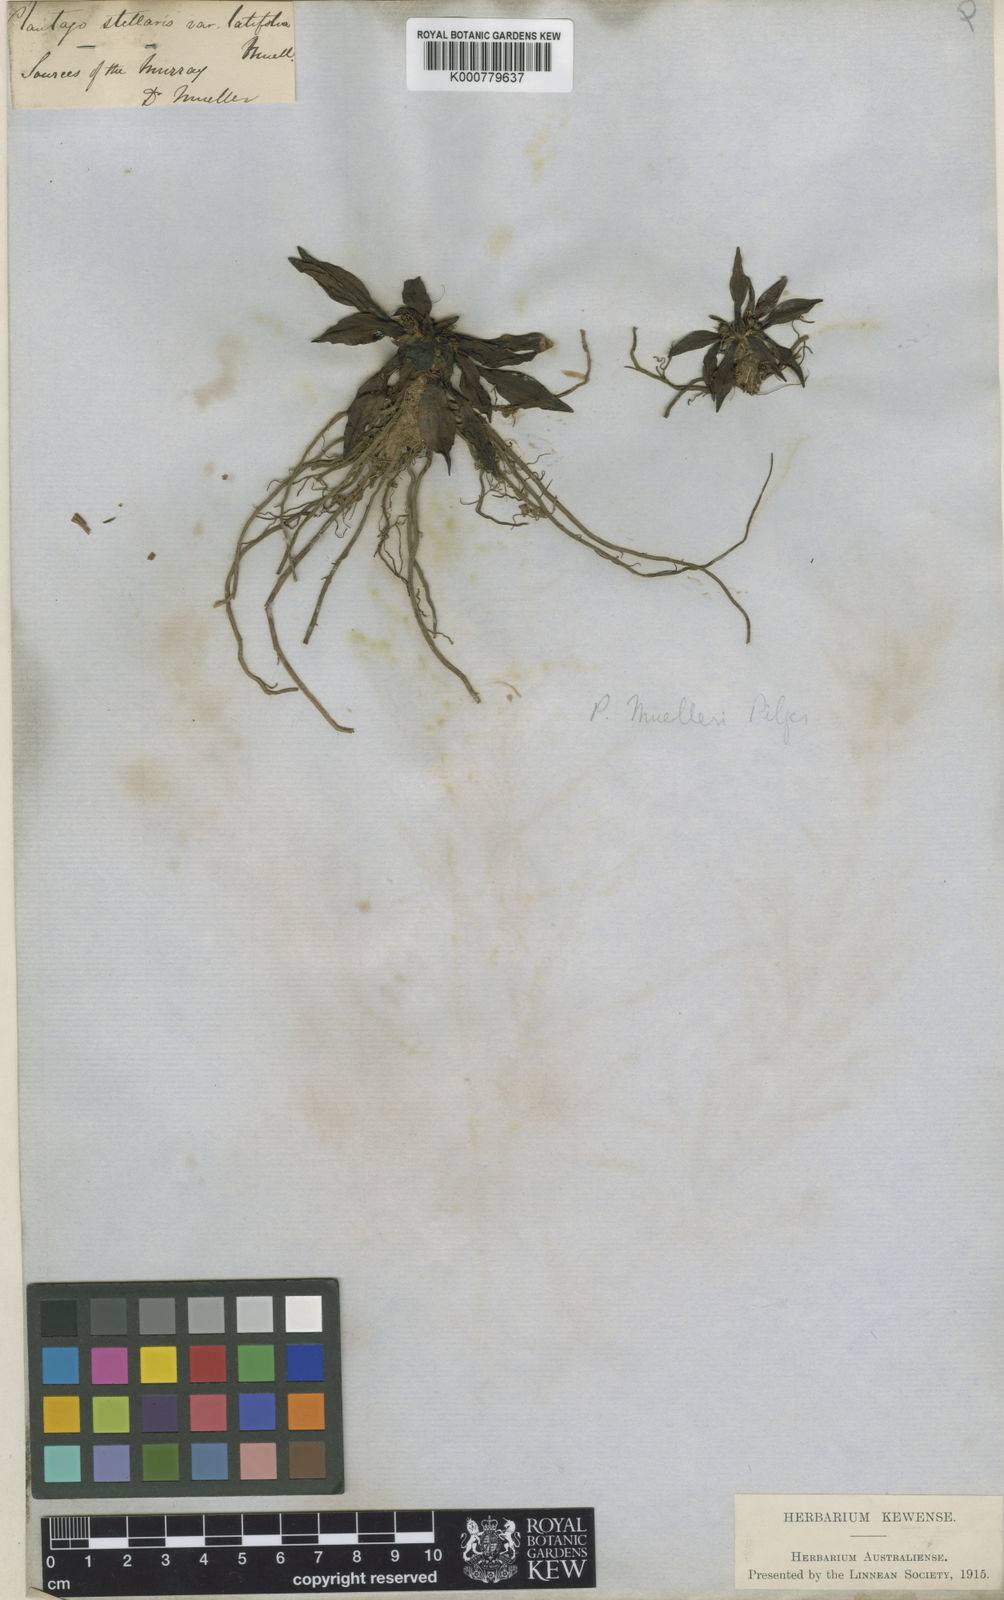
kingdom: Plantae
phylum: Tracheophyta
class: Magnoliopsida
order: Lamiales
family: Plantaginaceae
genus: Plantago
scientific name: Plantago muelleri
